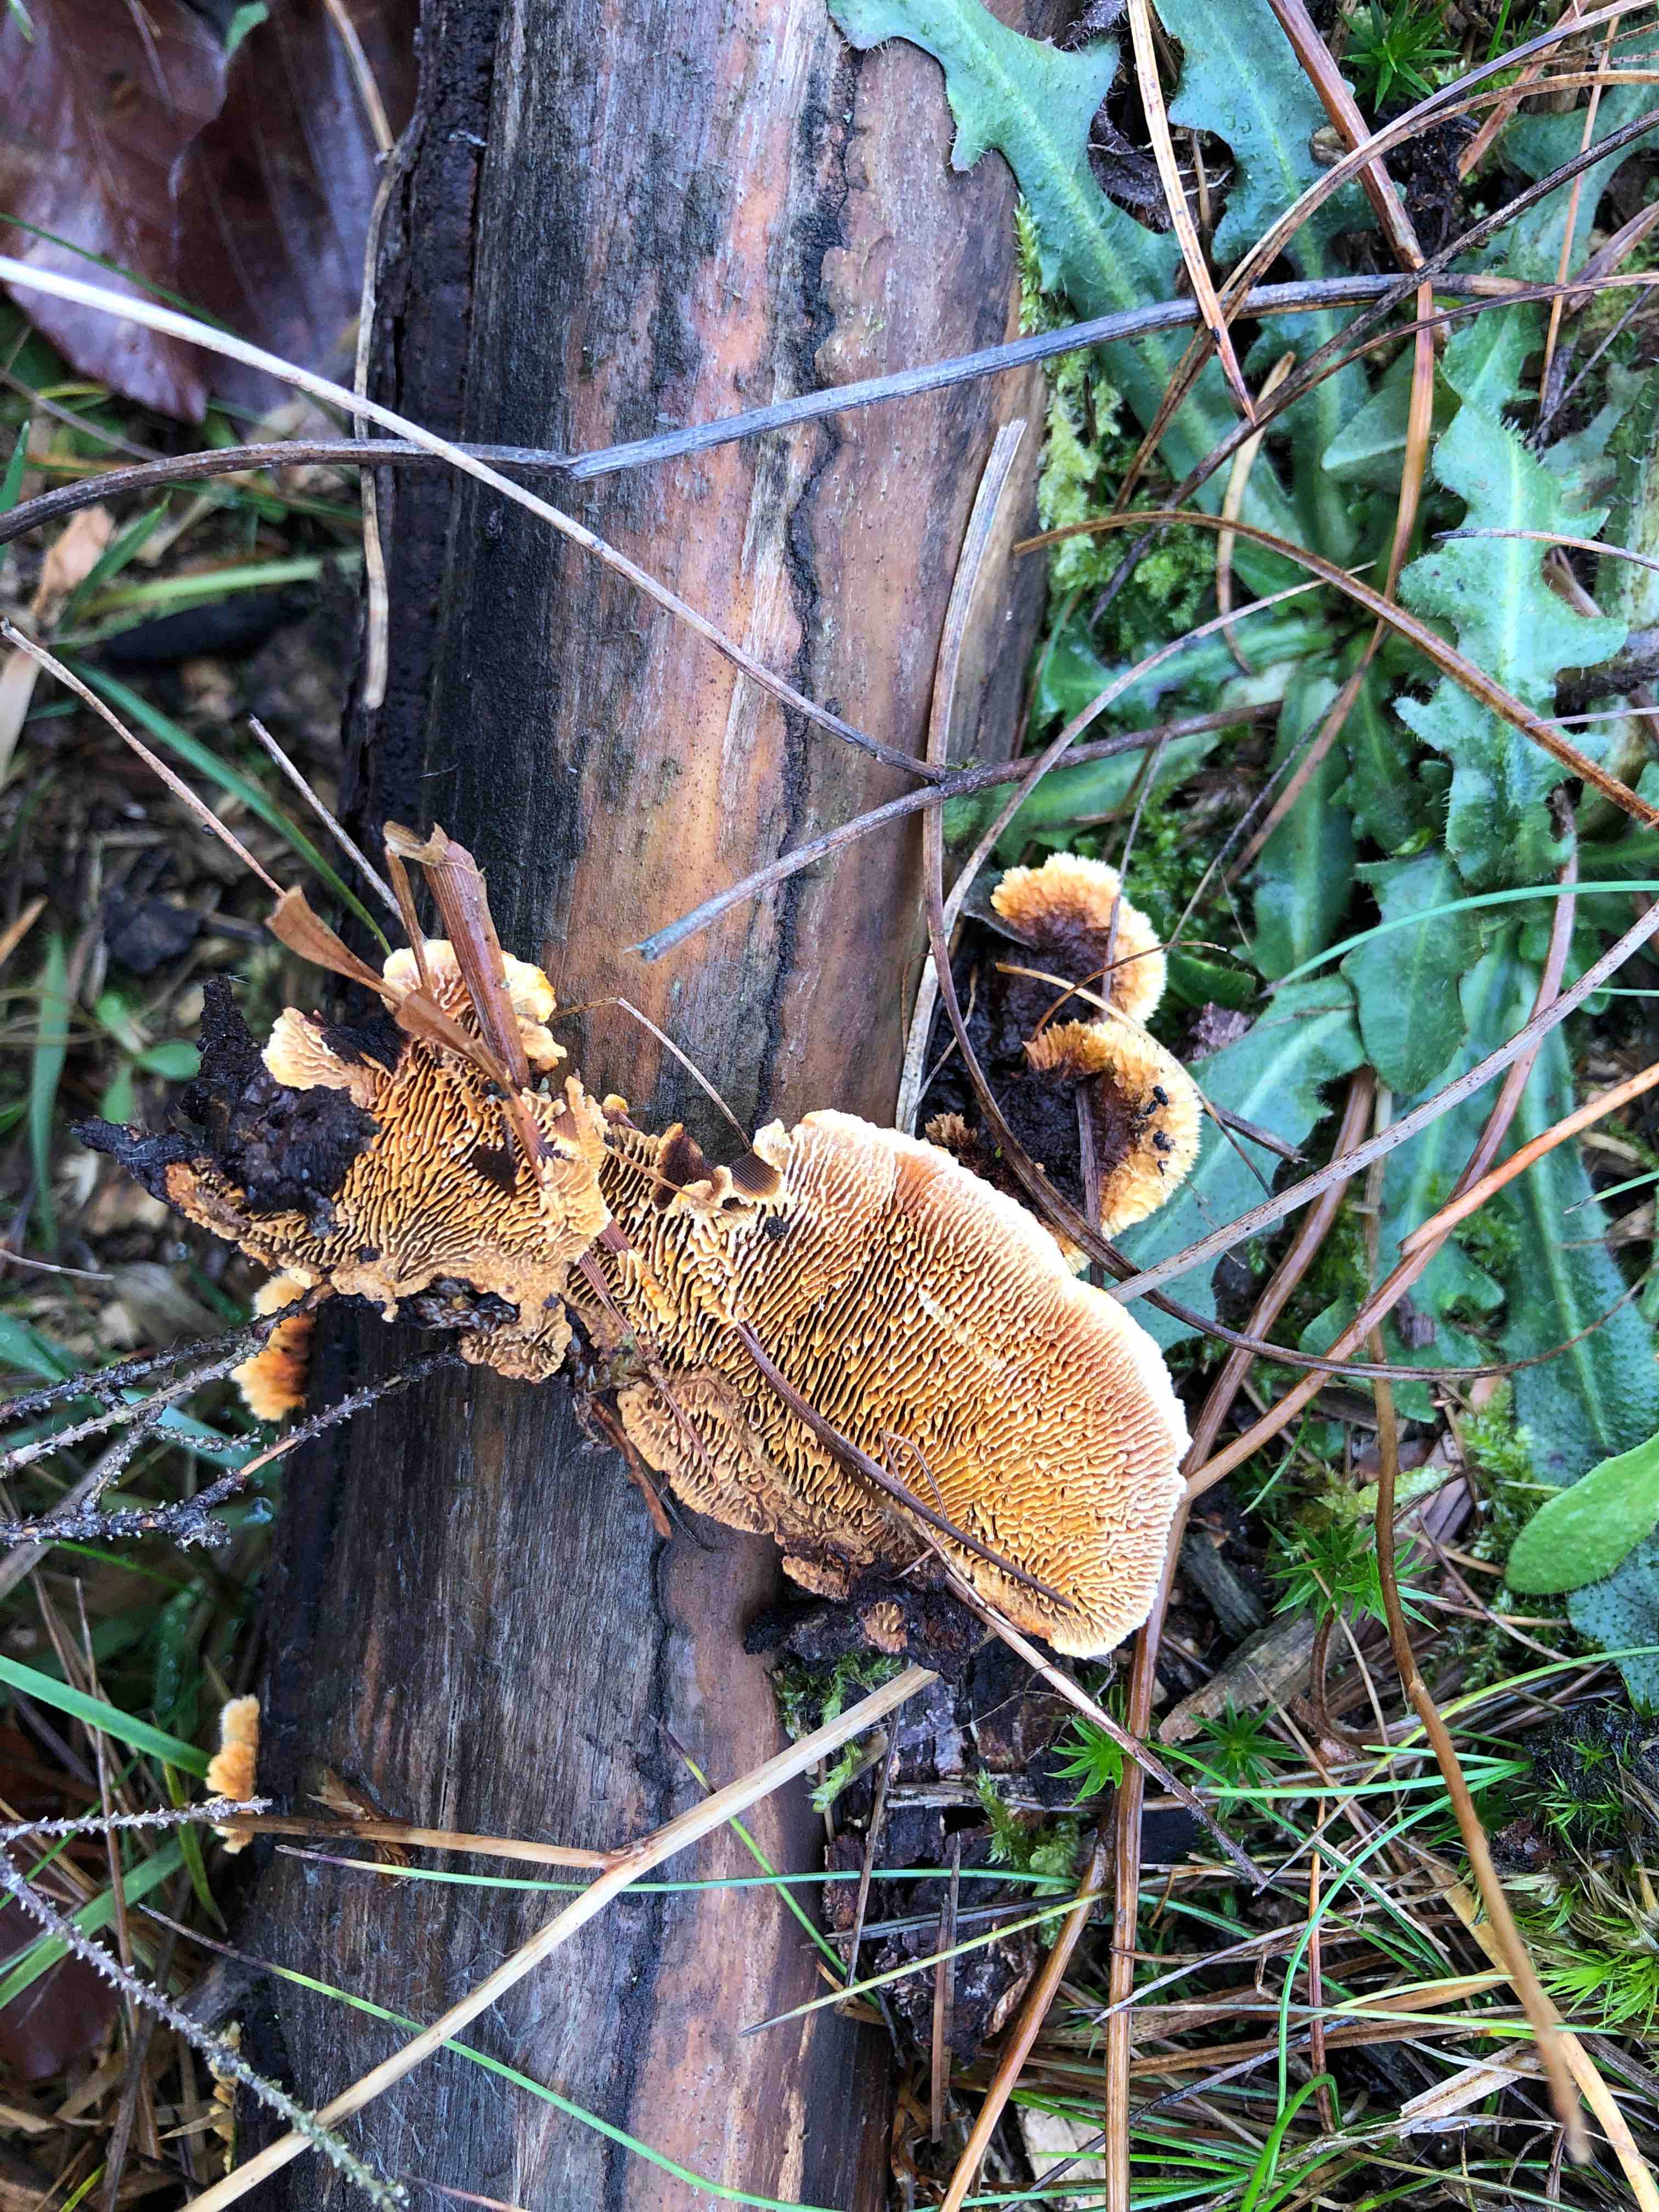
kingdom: Fungi
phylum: Basidiomycota
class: Agaricomycetes
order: Gloeophyllales
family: Gloeophyllaceae
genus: Gloeophyllum
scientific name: Gloeophyllum sepiarium
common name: fyrre-korkhat
